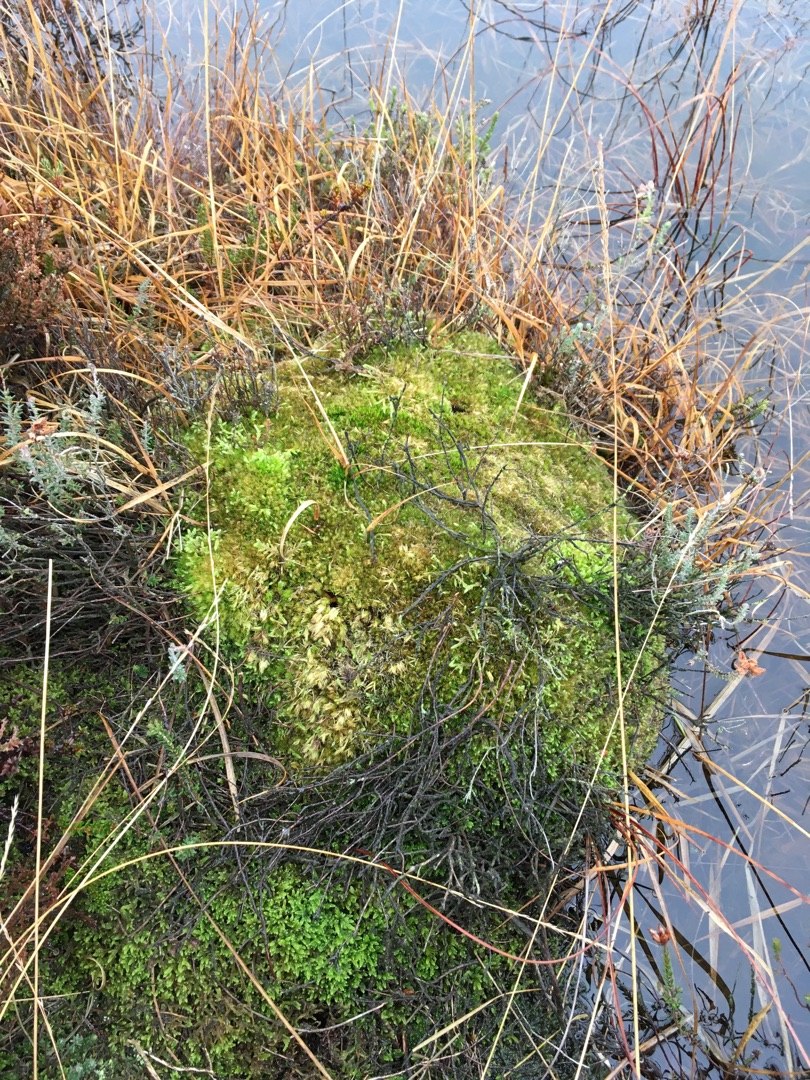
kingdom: Plantae
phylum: Bryophyta
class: Bryopsida
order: Dicranales
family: Leucobryaceae
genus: Leucobryum
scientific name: Leucobryum glaucum
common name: Almindelig hvidmos
